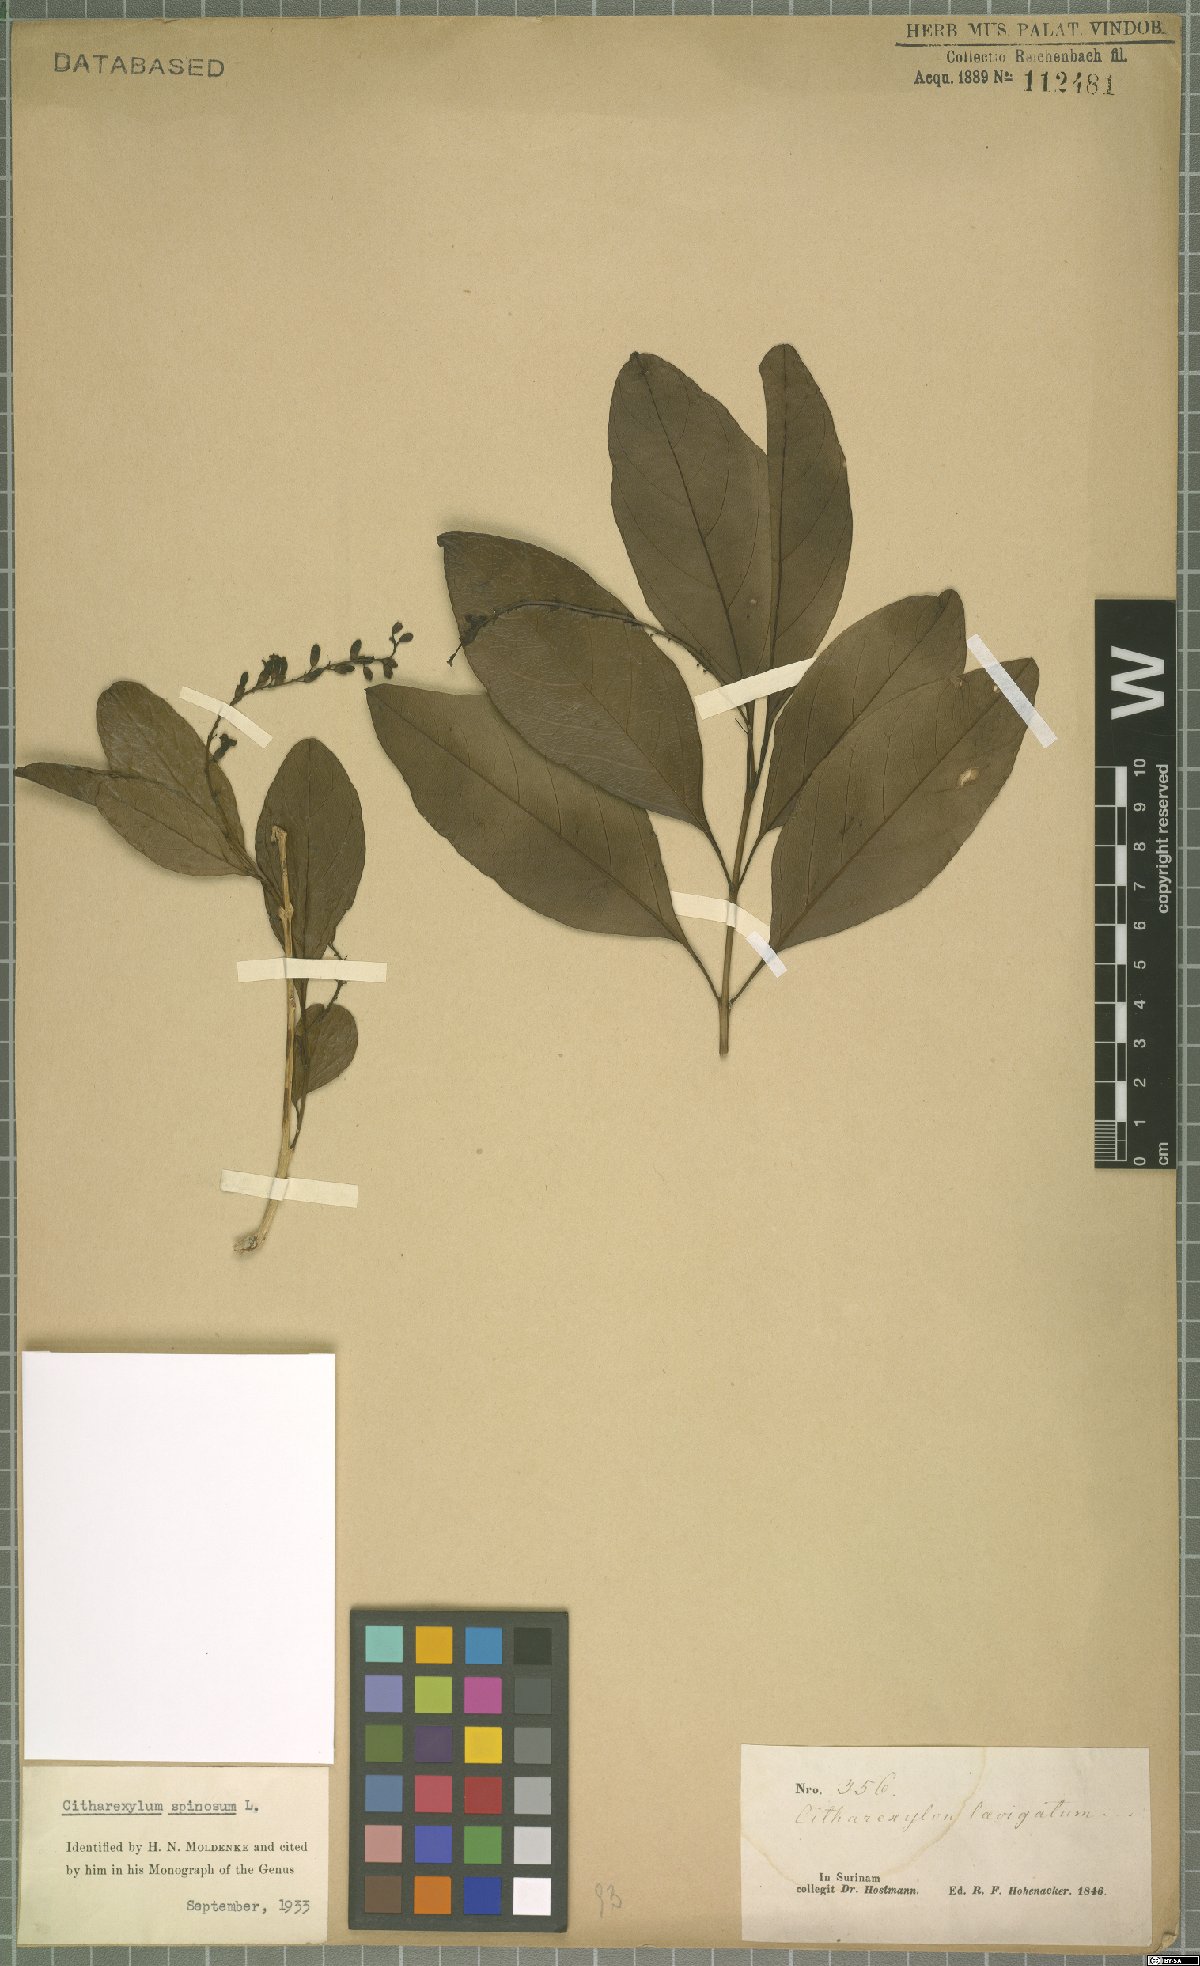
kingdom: Plantae
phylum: Tracheophyta
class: Magnoliopsida
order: Lamiales
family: Verbenaceae
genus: Citharexylum
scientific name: Citharexylum spinosum
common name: Fiddlewood
